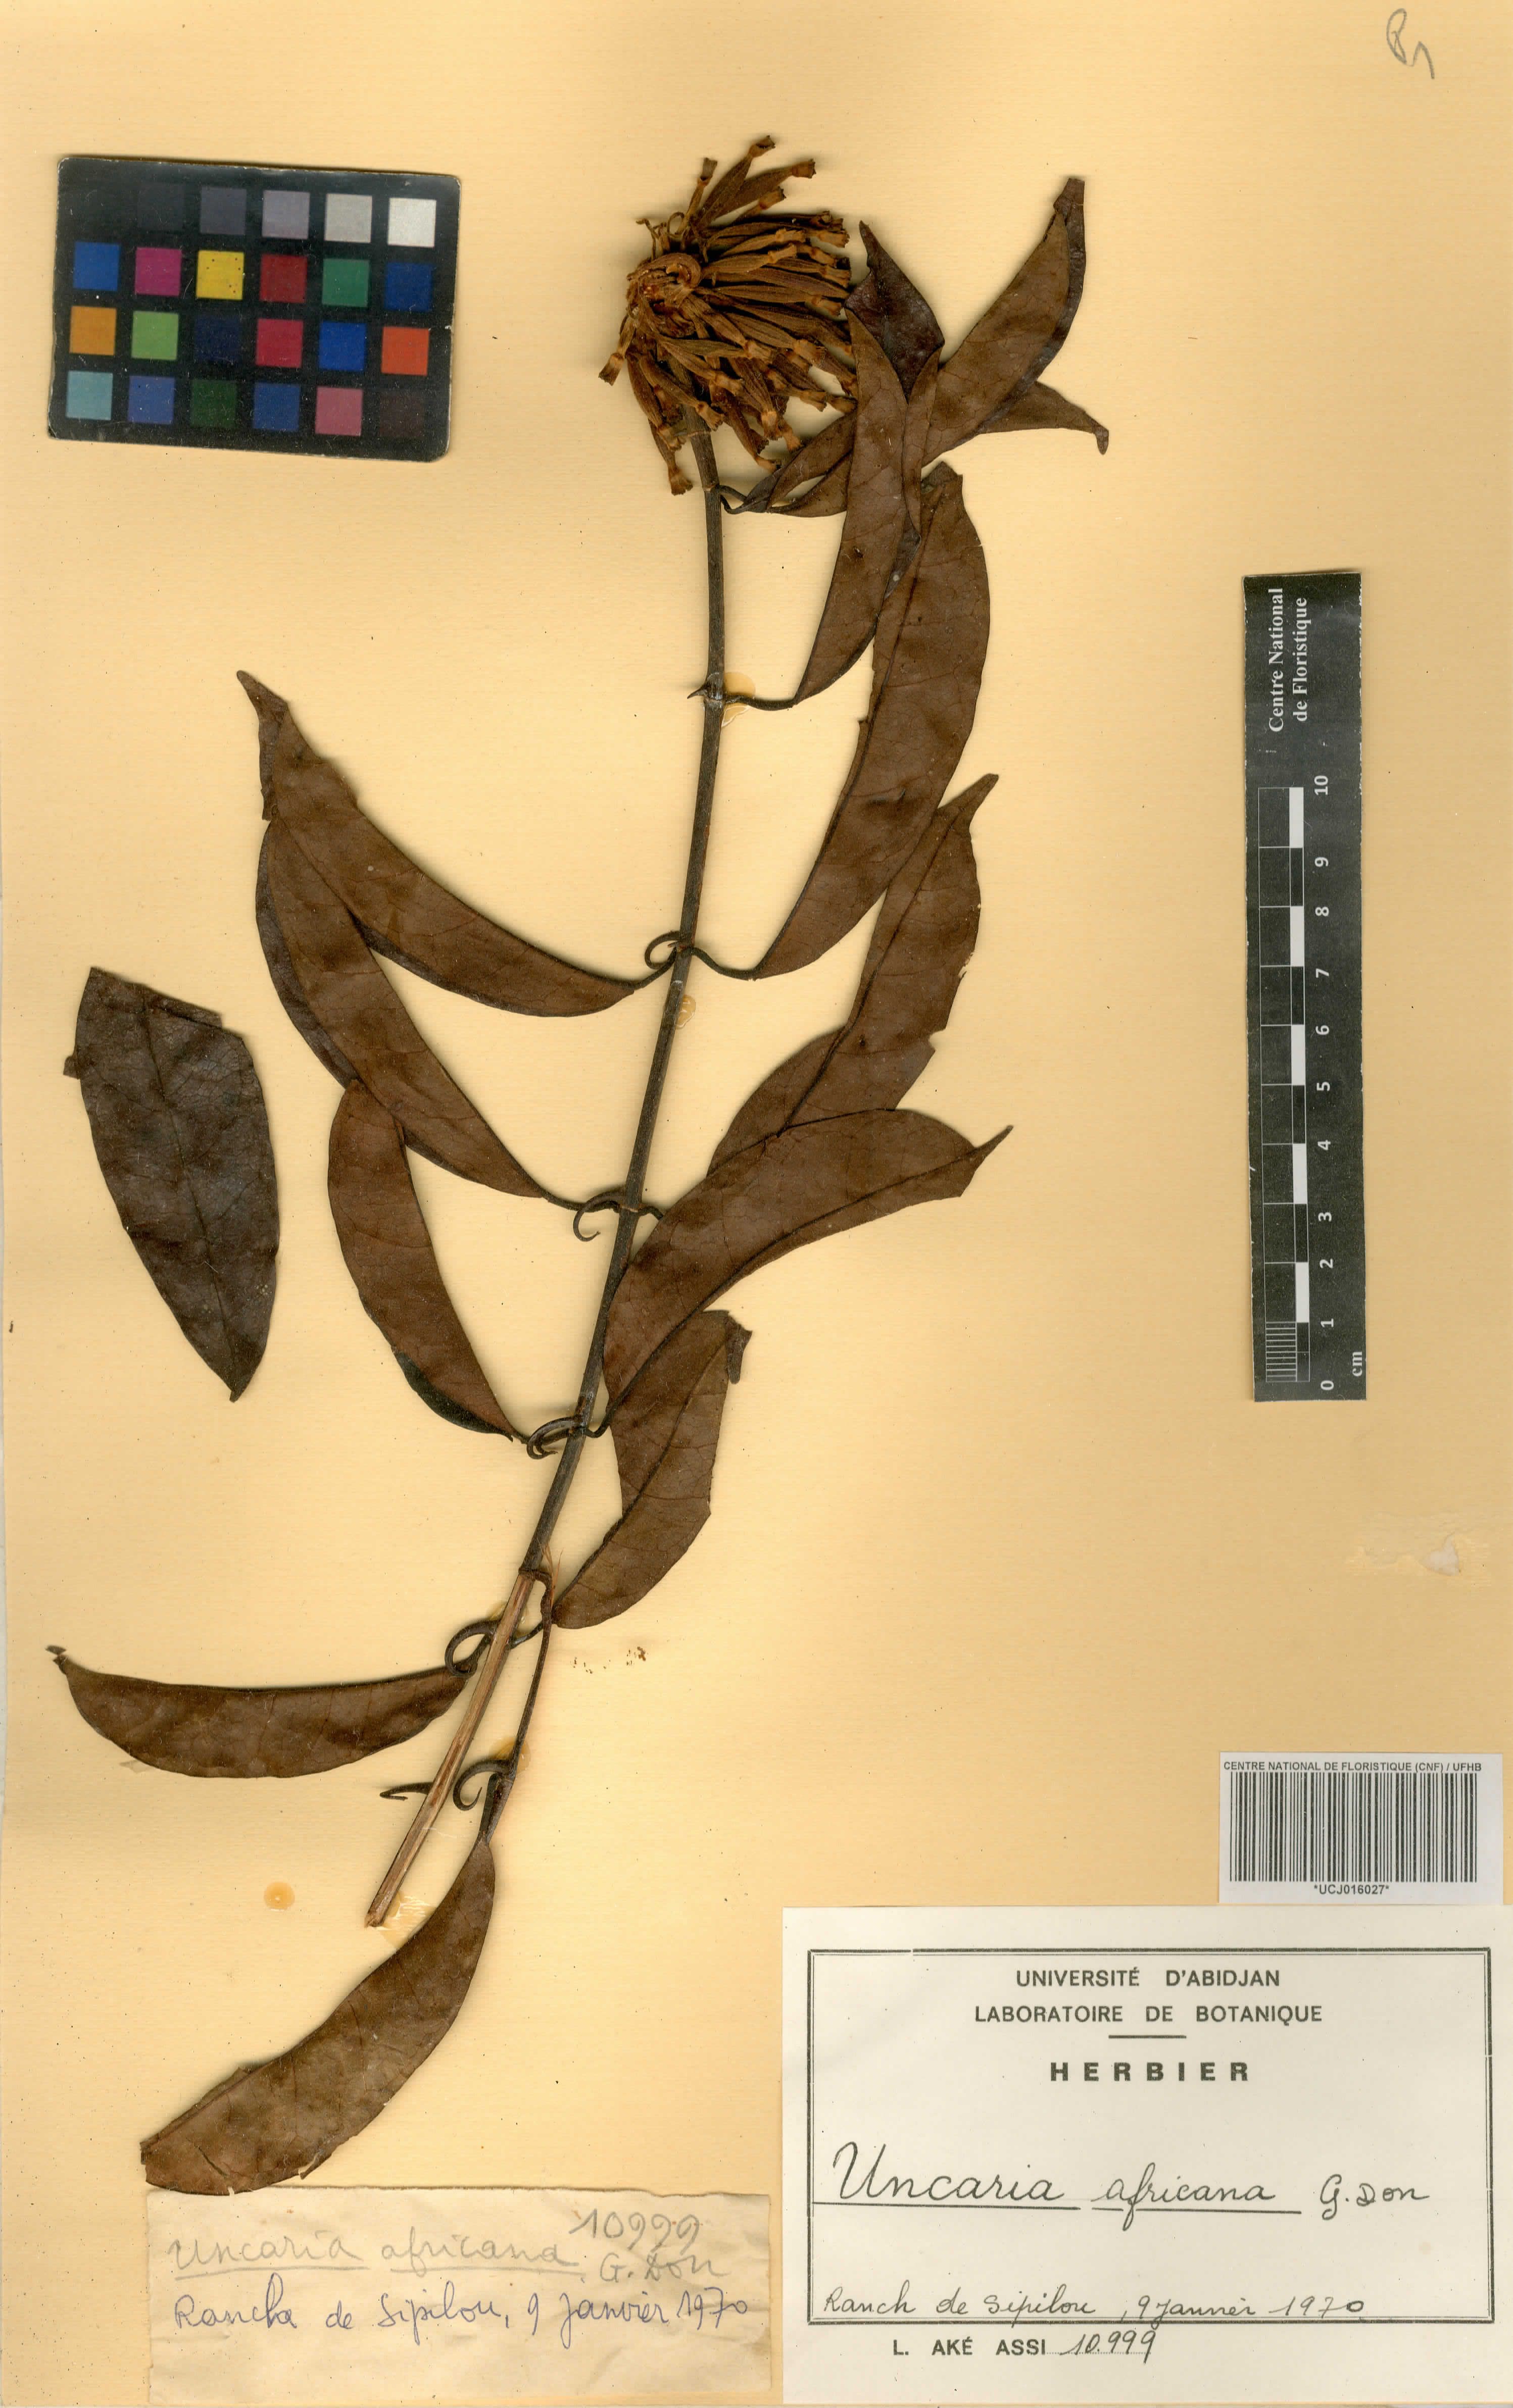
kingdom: Plantae
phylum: Tracheophyta
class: Magnoliopsida
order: Gentianales
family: Rubiaceae
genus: Uncaria
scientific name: Uncaria africana
